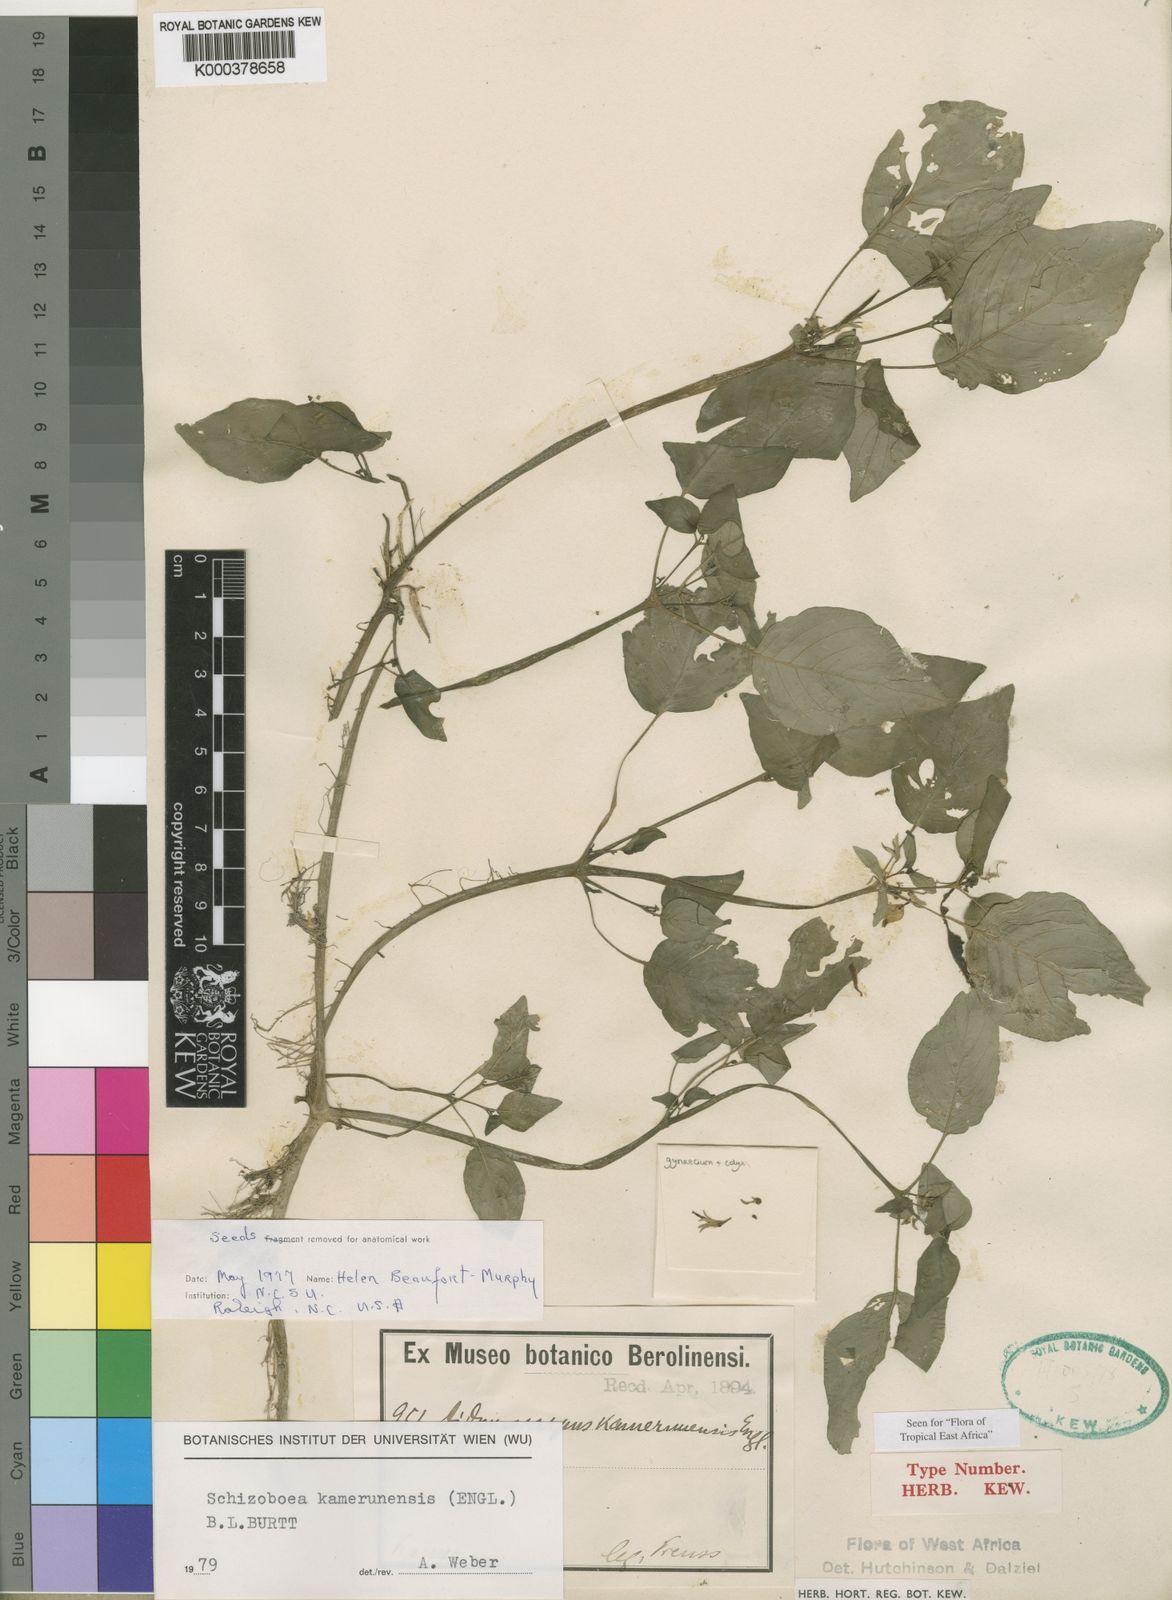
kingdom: Plantae
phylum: Tracheophyta
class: Magnoliopsida
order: Lamiales
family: Gesneriaceae
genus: Streptocarpus
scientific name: Streptocarpus kamerunensis
